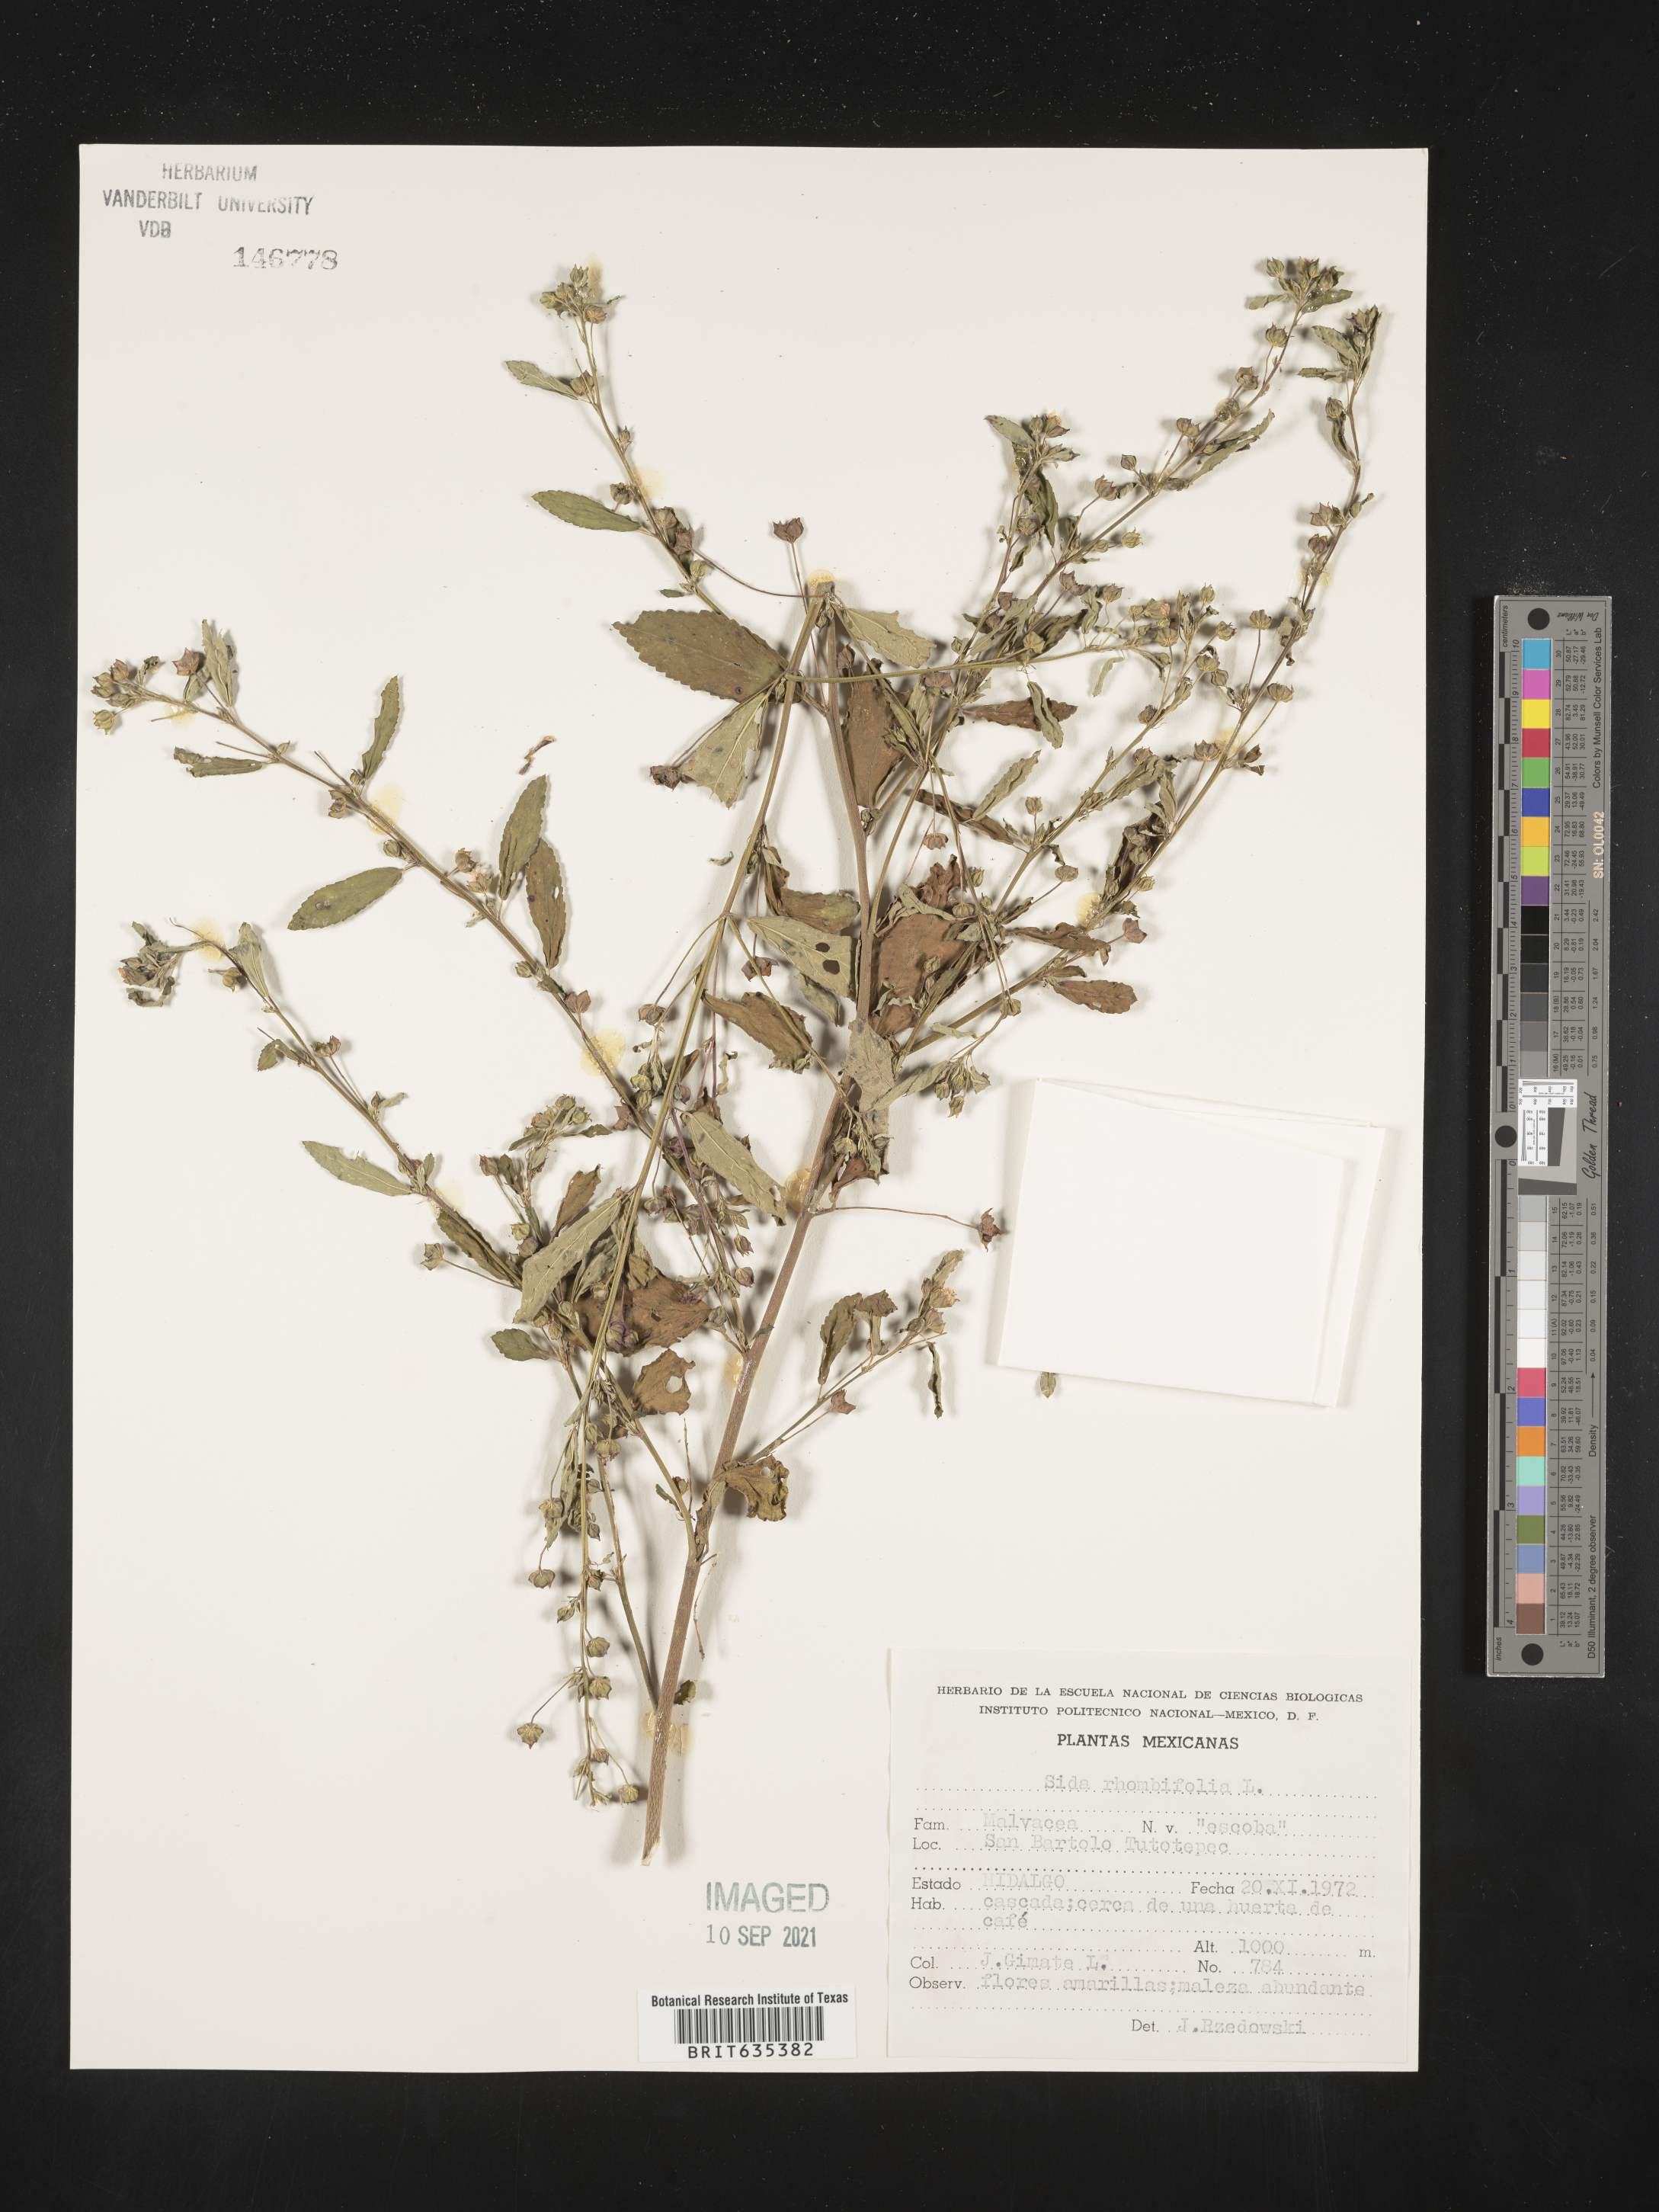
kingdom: Plantae
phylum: Tracheophyta
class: Magnoliopsida
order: Malvales
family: Malvaceae
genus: Sida
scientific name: Sida
